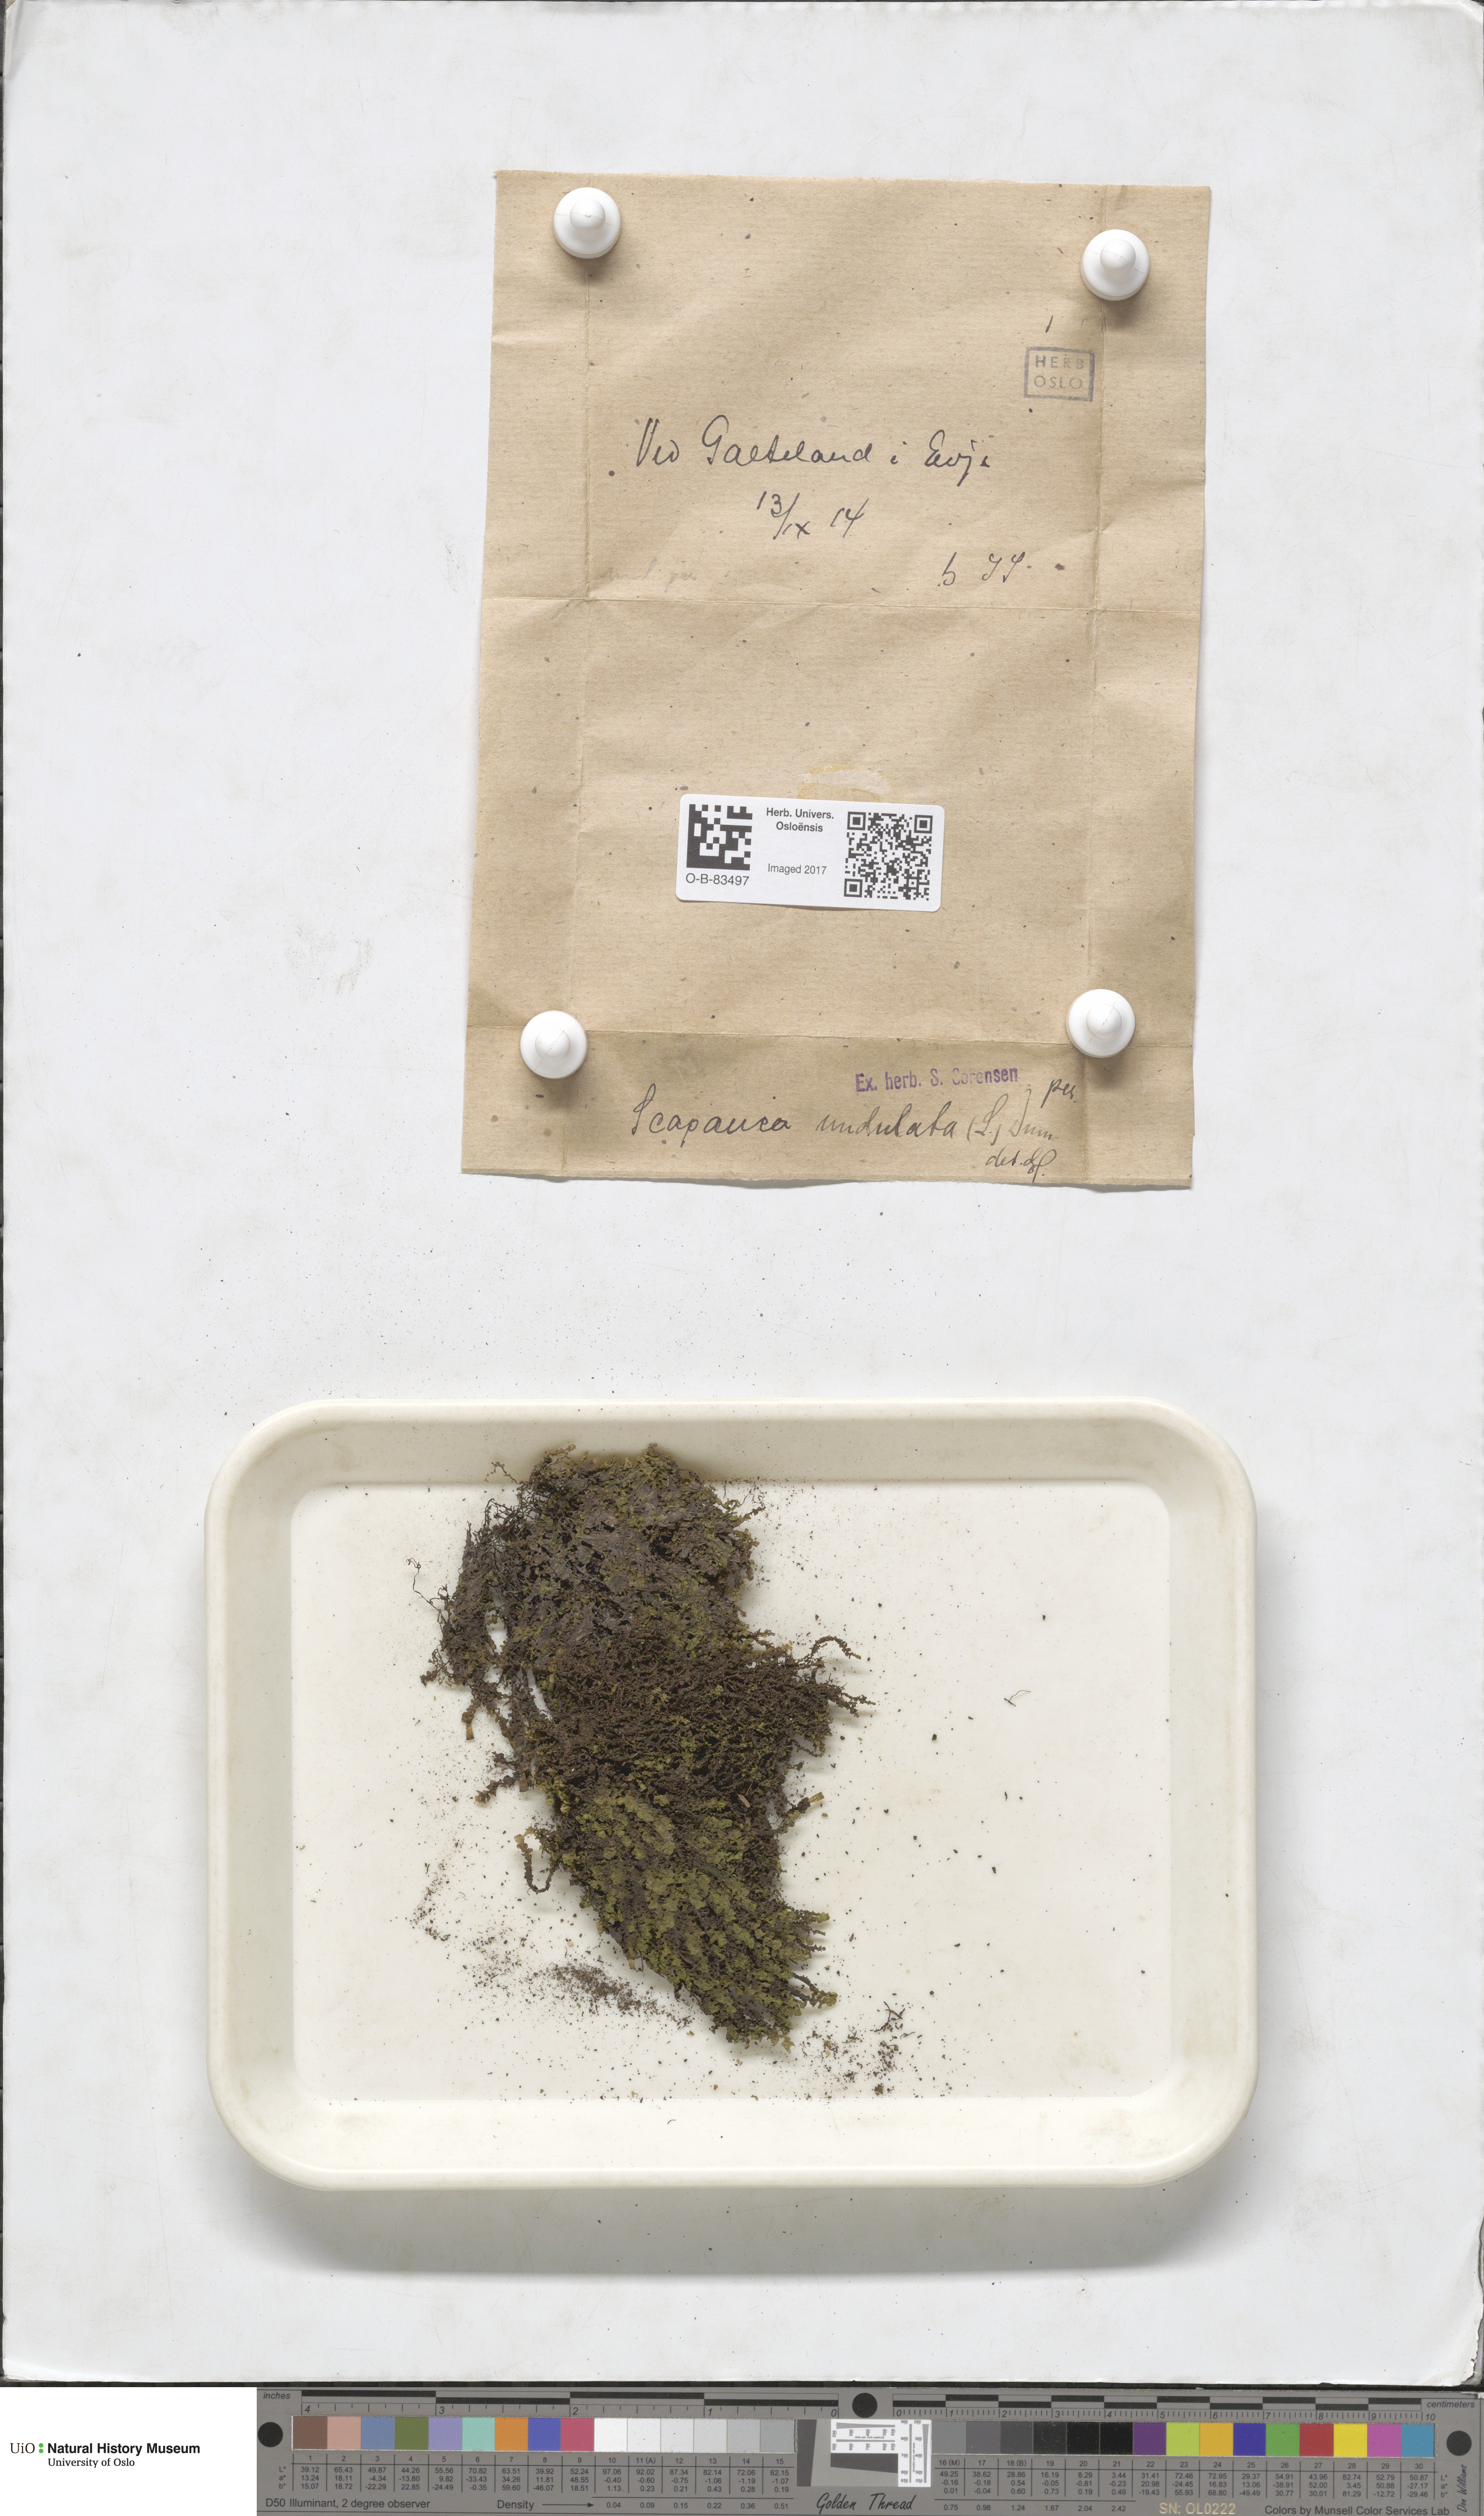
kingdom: Plantae
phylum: Marchantiophyta
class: Jungermanniopsida
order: Jungermanniales
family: Scapaniaceae
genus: Scapania
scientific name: Scapania undulata
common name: Water earwort
